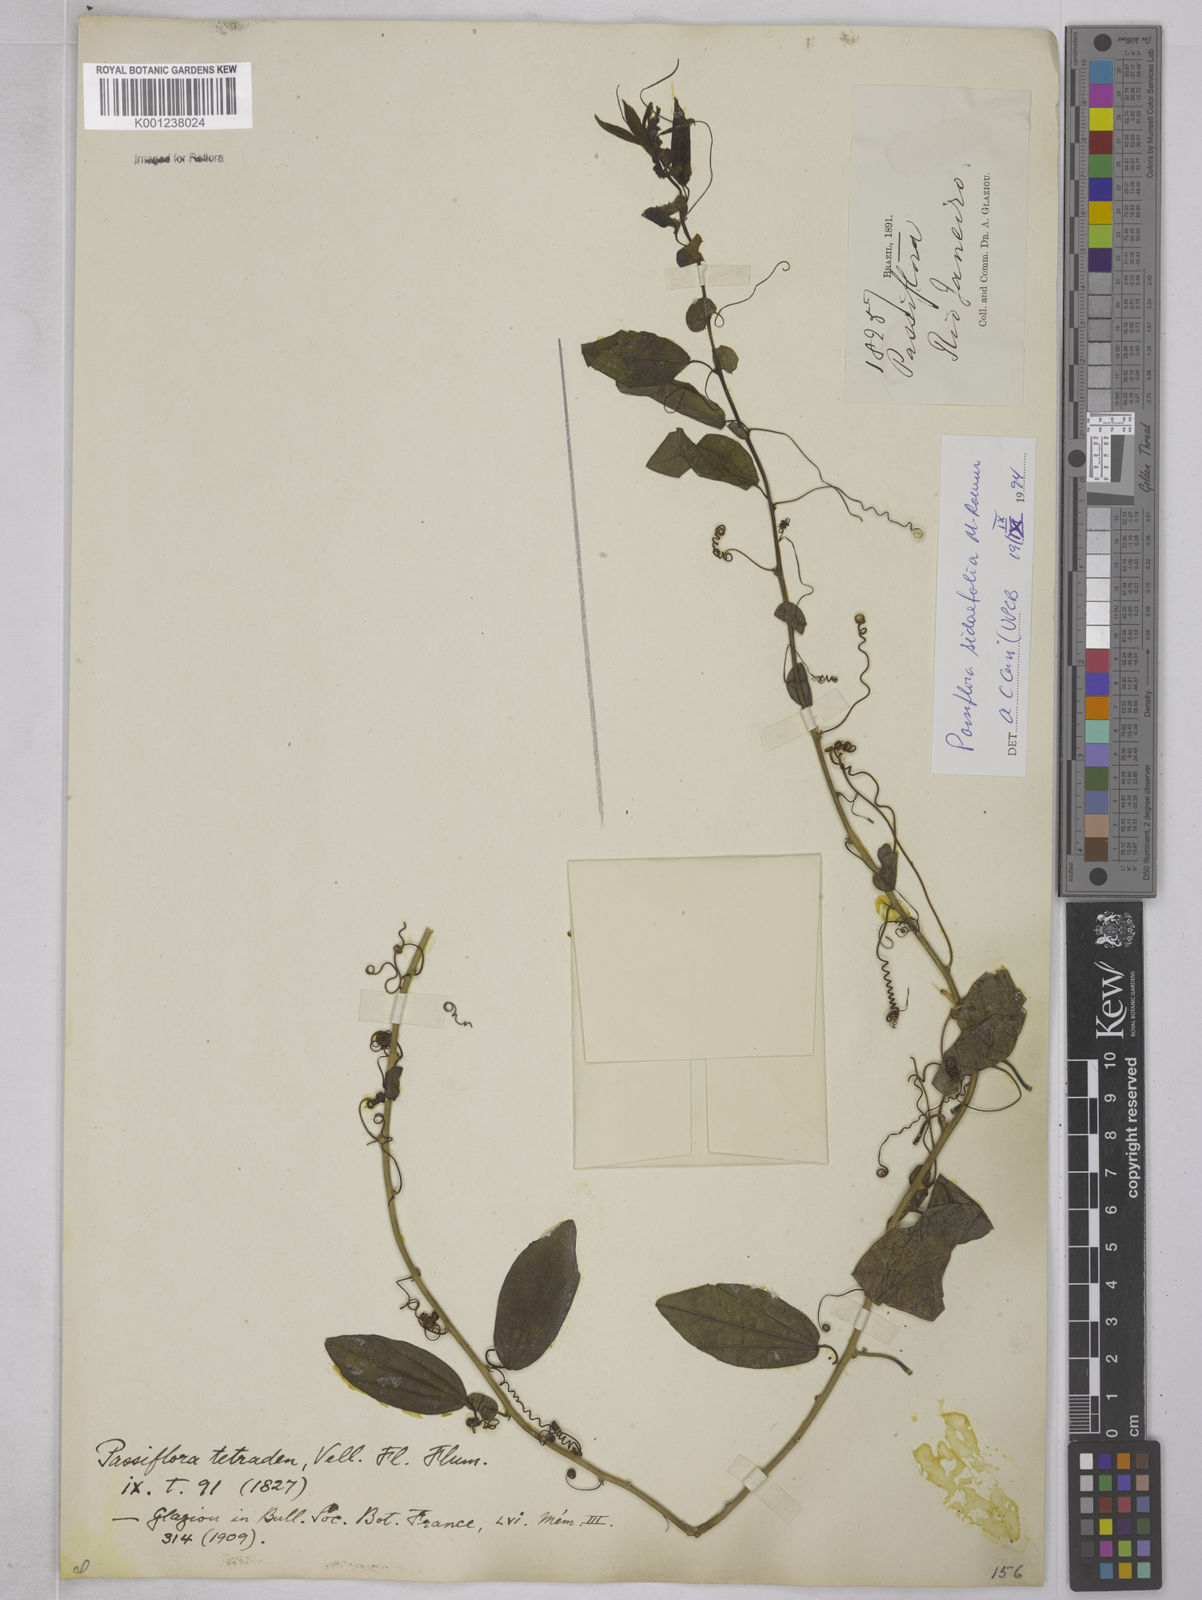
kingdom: Plantae
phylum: Tracheophyta
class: Magnoliopsida
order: Malpighiales
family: Passifloraceae
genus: Passiflora
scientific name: Passiflora tetraden
